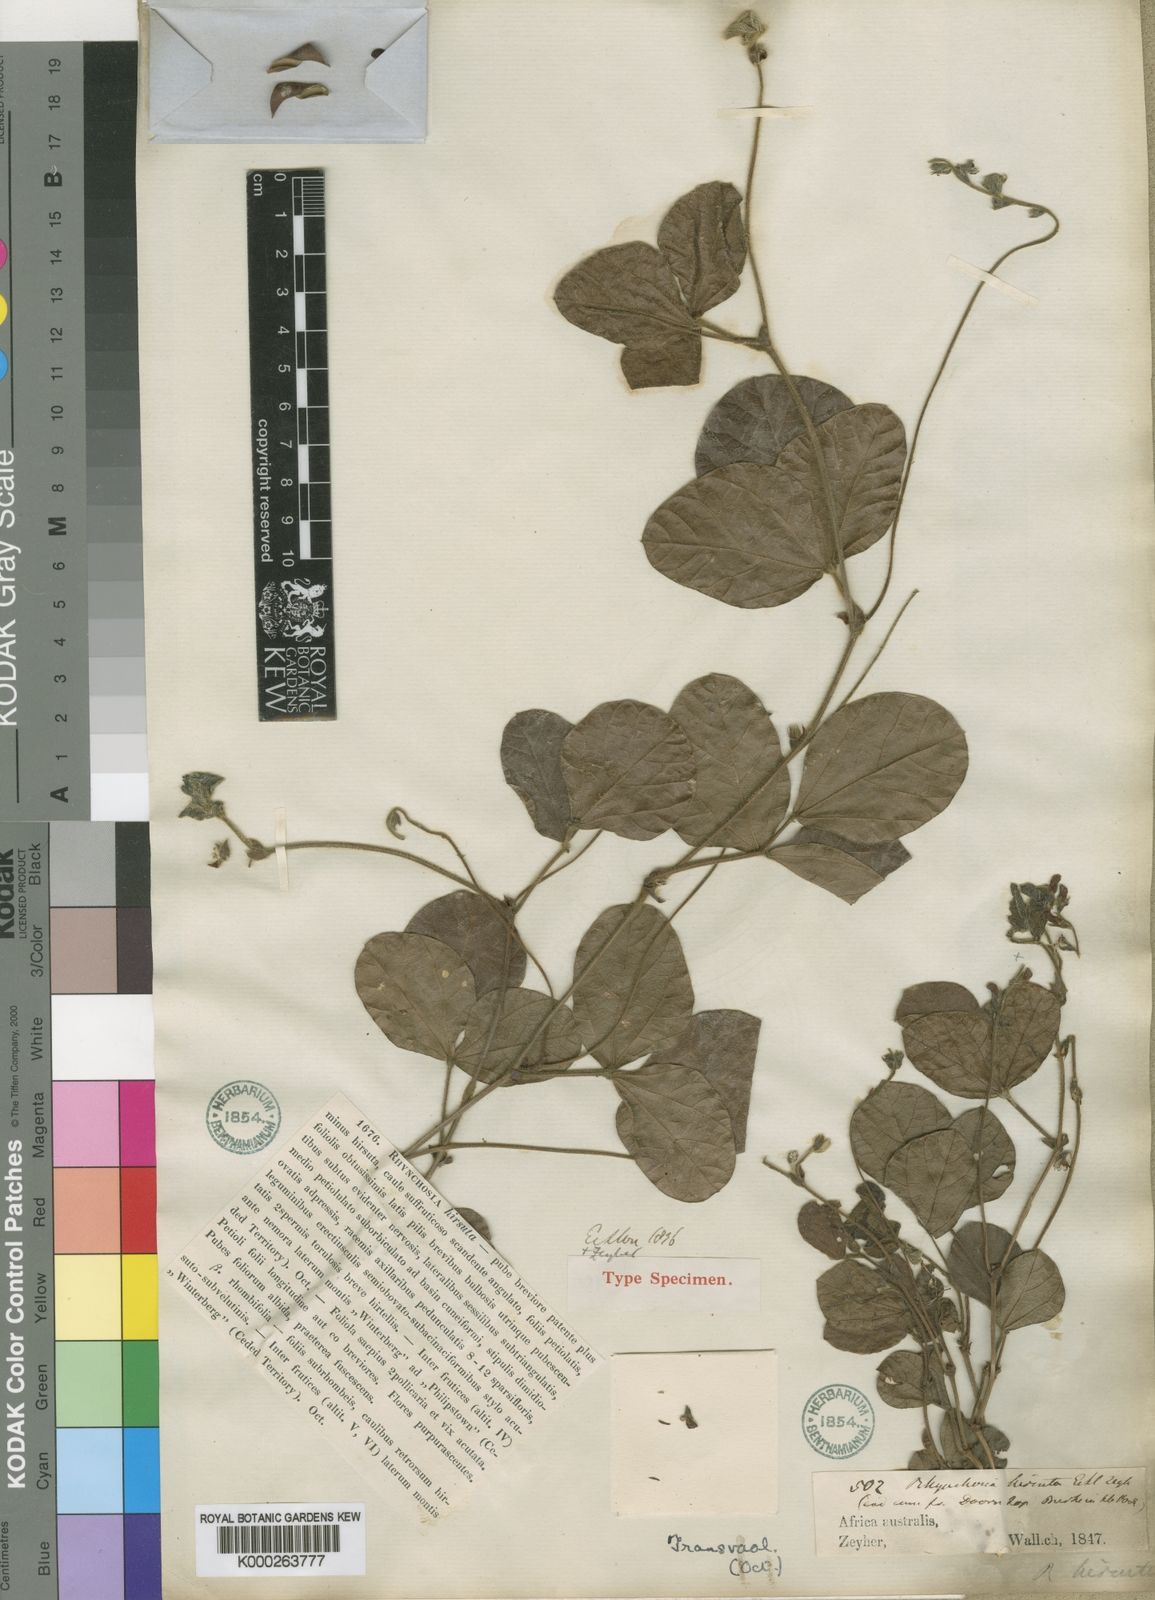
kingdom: Plantae
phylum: Tracheophyta
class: Magnoliopsida
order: Fabales
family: Fabaceae
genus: Rhynchosia
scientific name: Rhynchosia hirsuta
